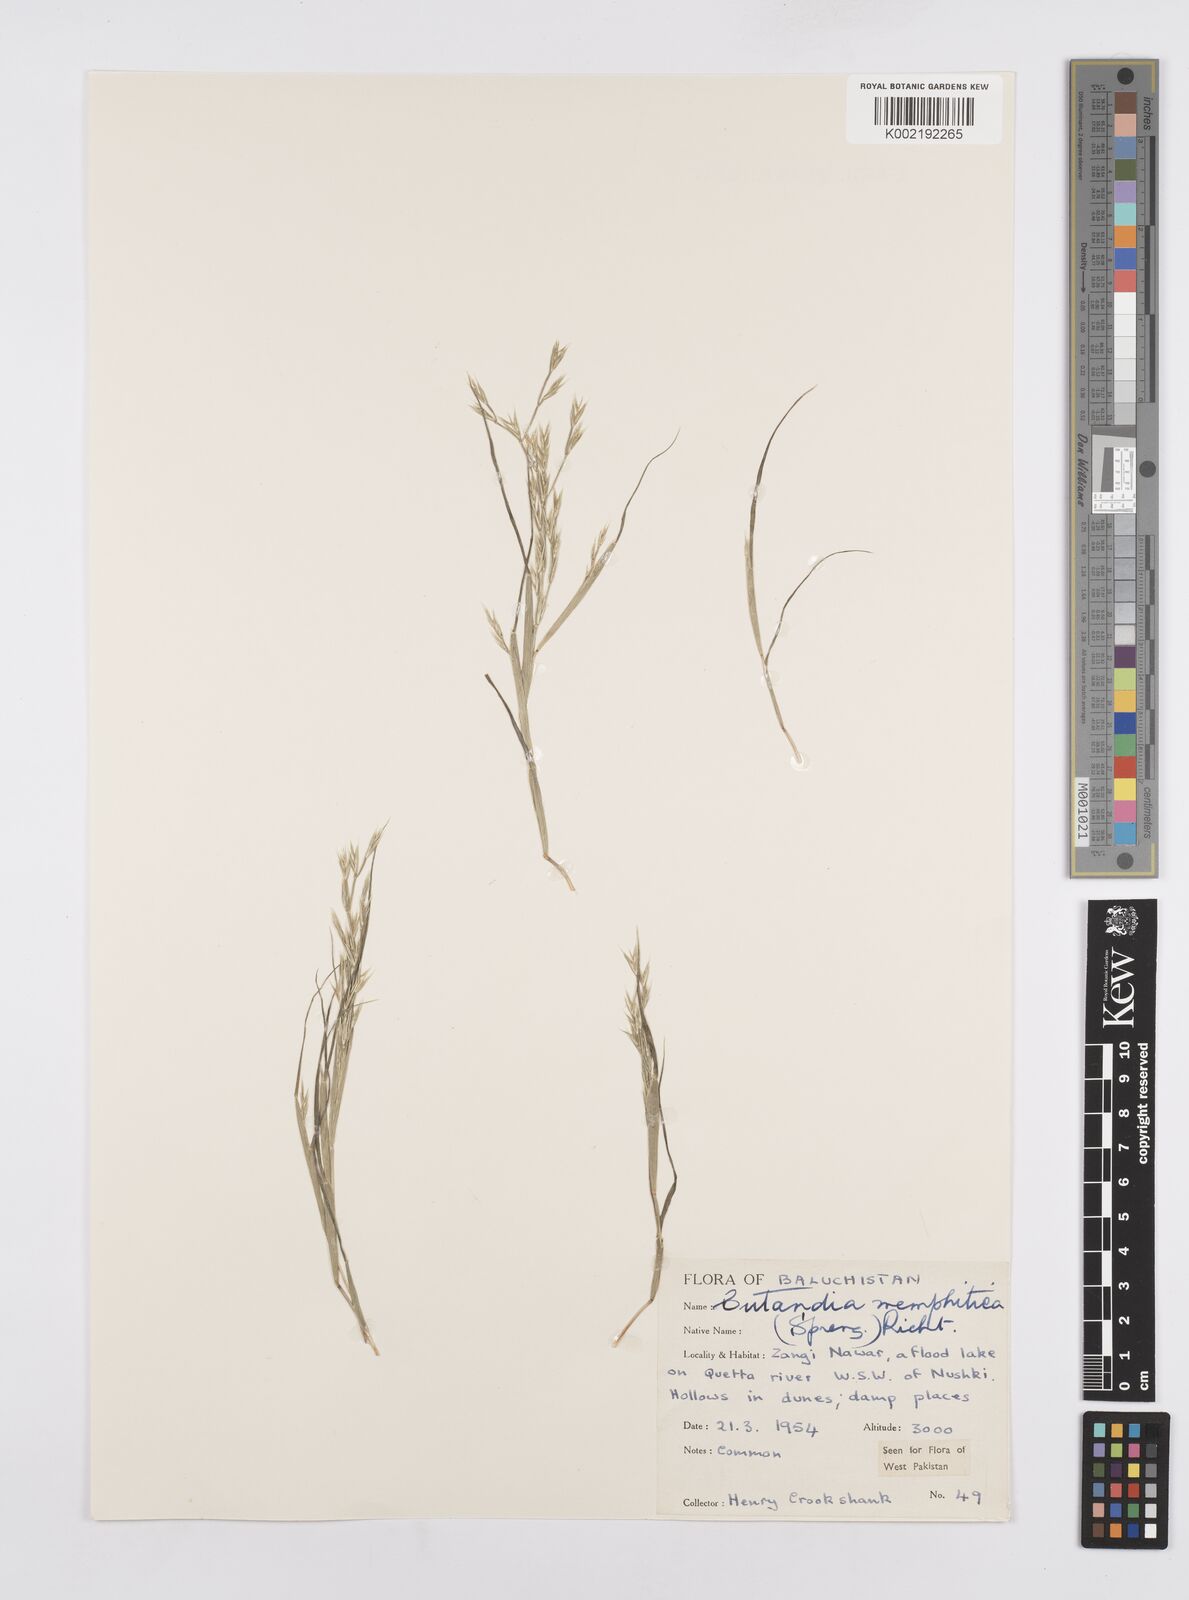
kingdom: Plantae
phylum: Tracheophyta
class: Liliopsida
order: Poales
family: Poaceae
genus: Cutandia
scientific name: Cutandia memphitica
